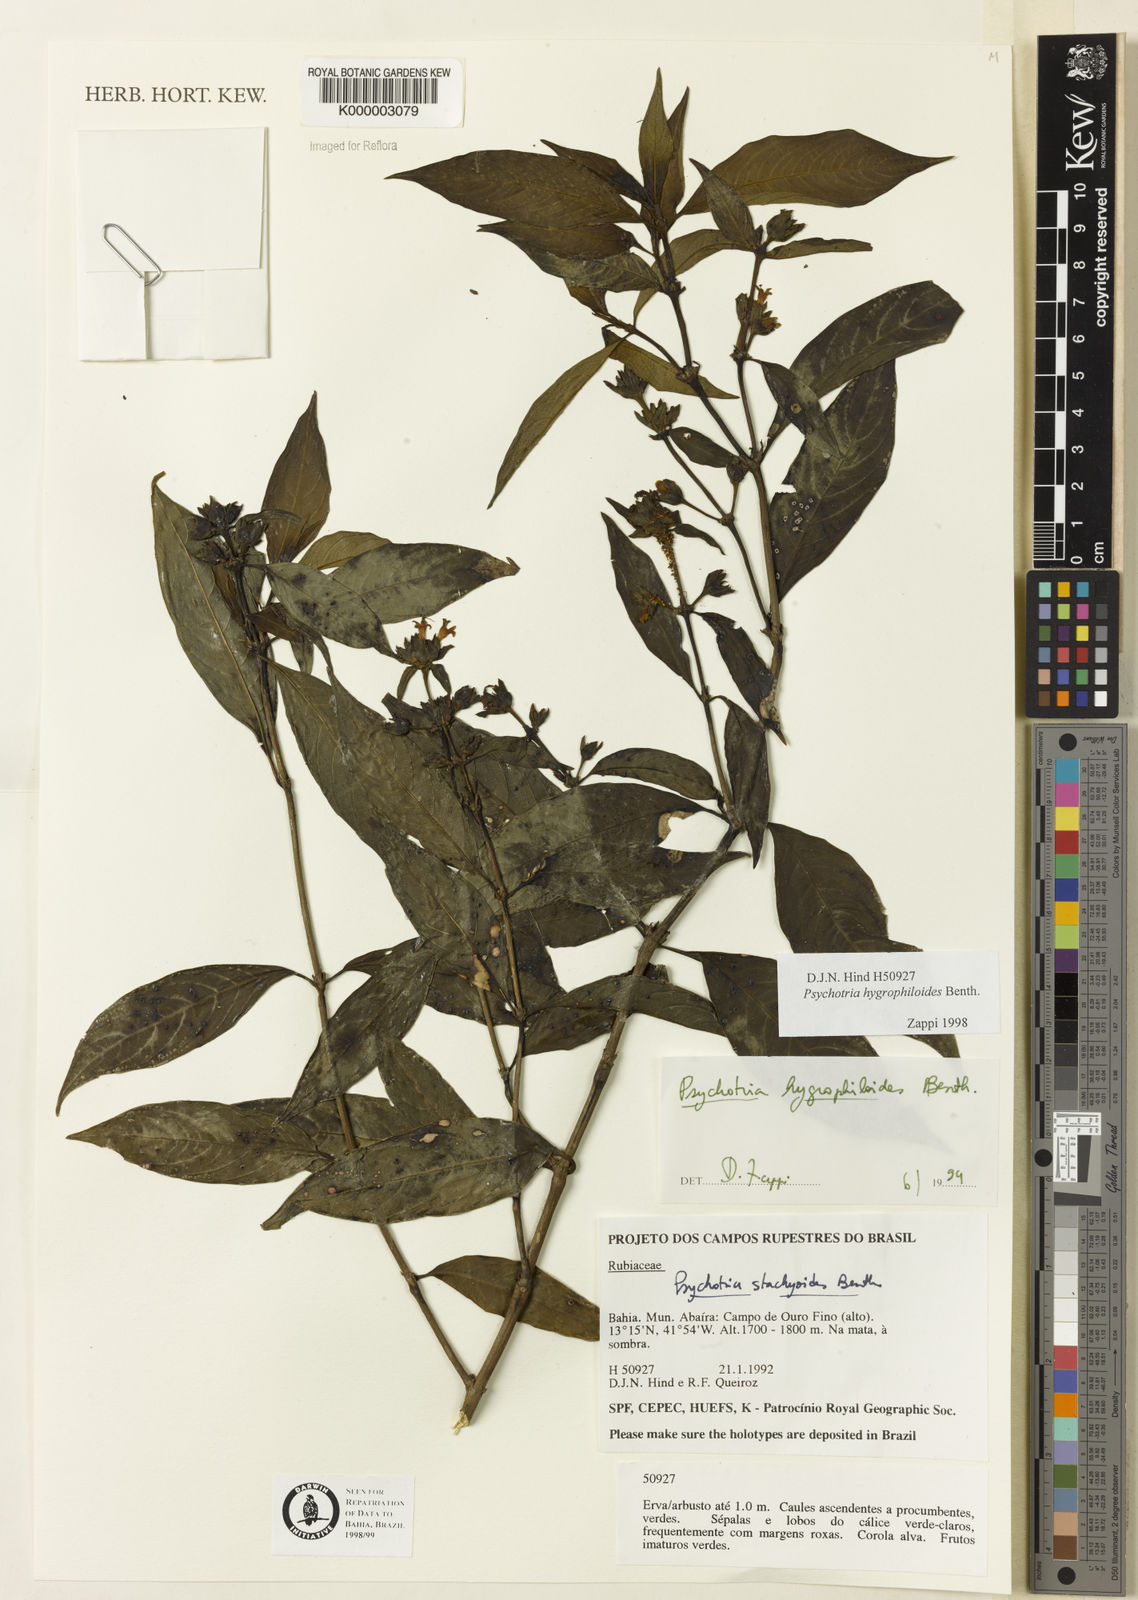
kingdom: Plantae
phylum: Tracheophyta
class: Magnoliopsida
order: Gentianales
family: Rubiaceae
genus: Psychotria
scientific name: Psychotria stachyoides
